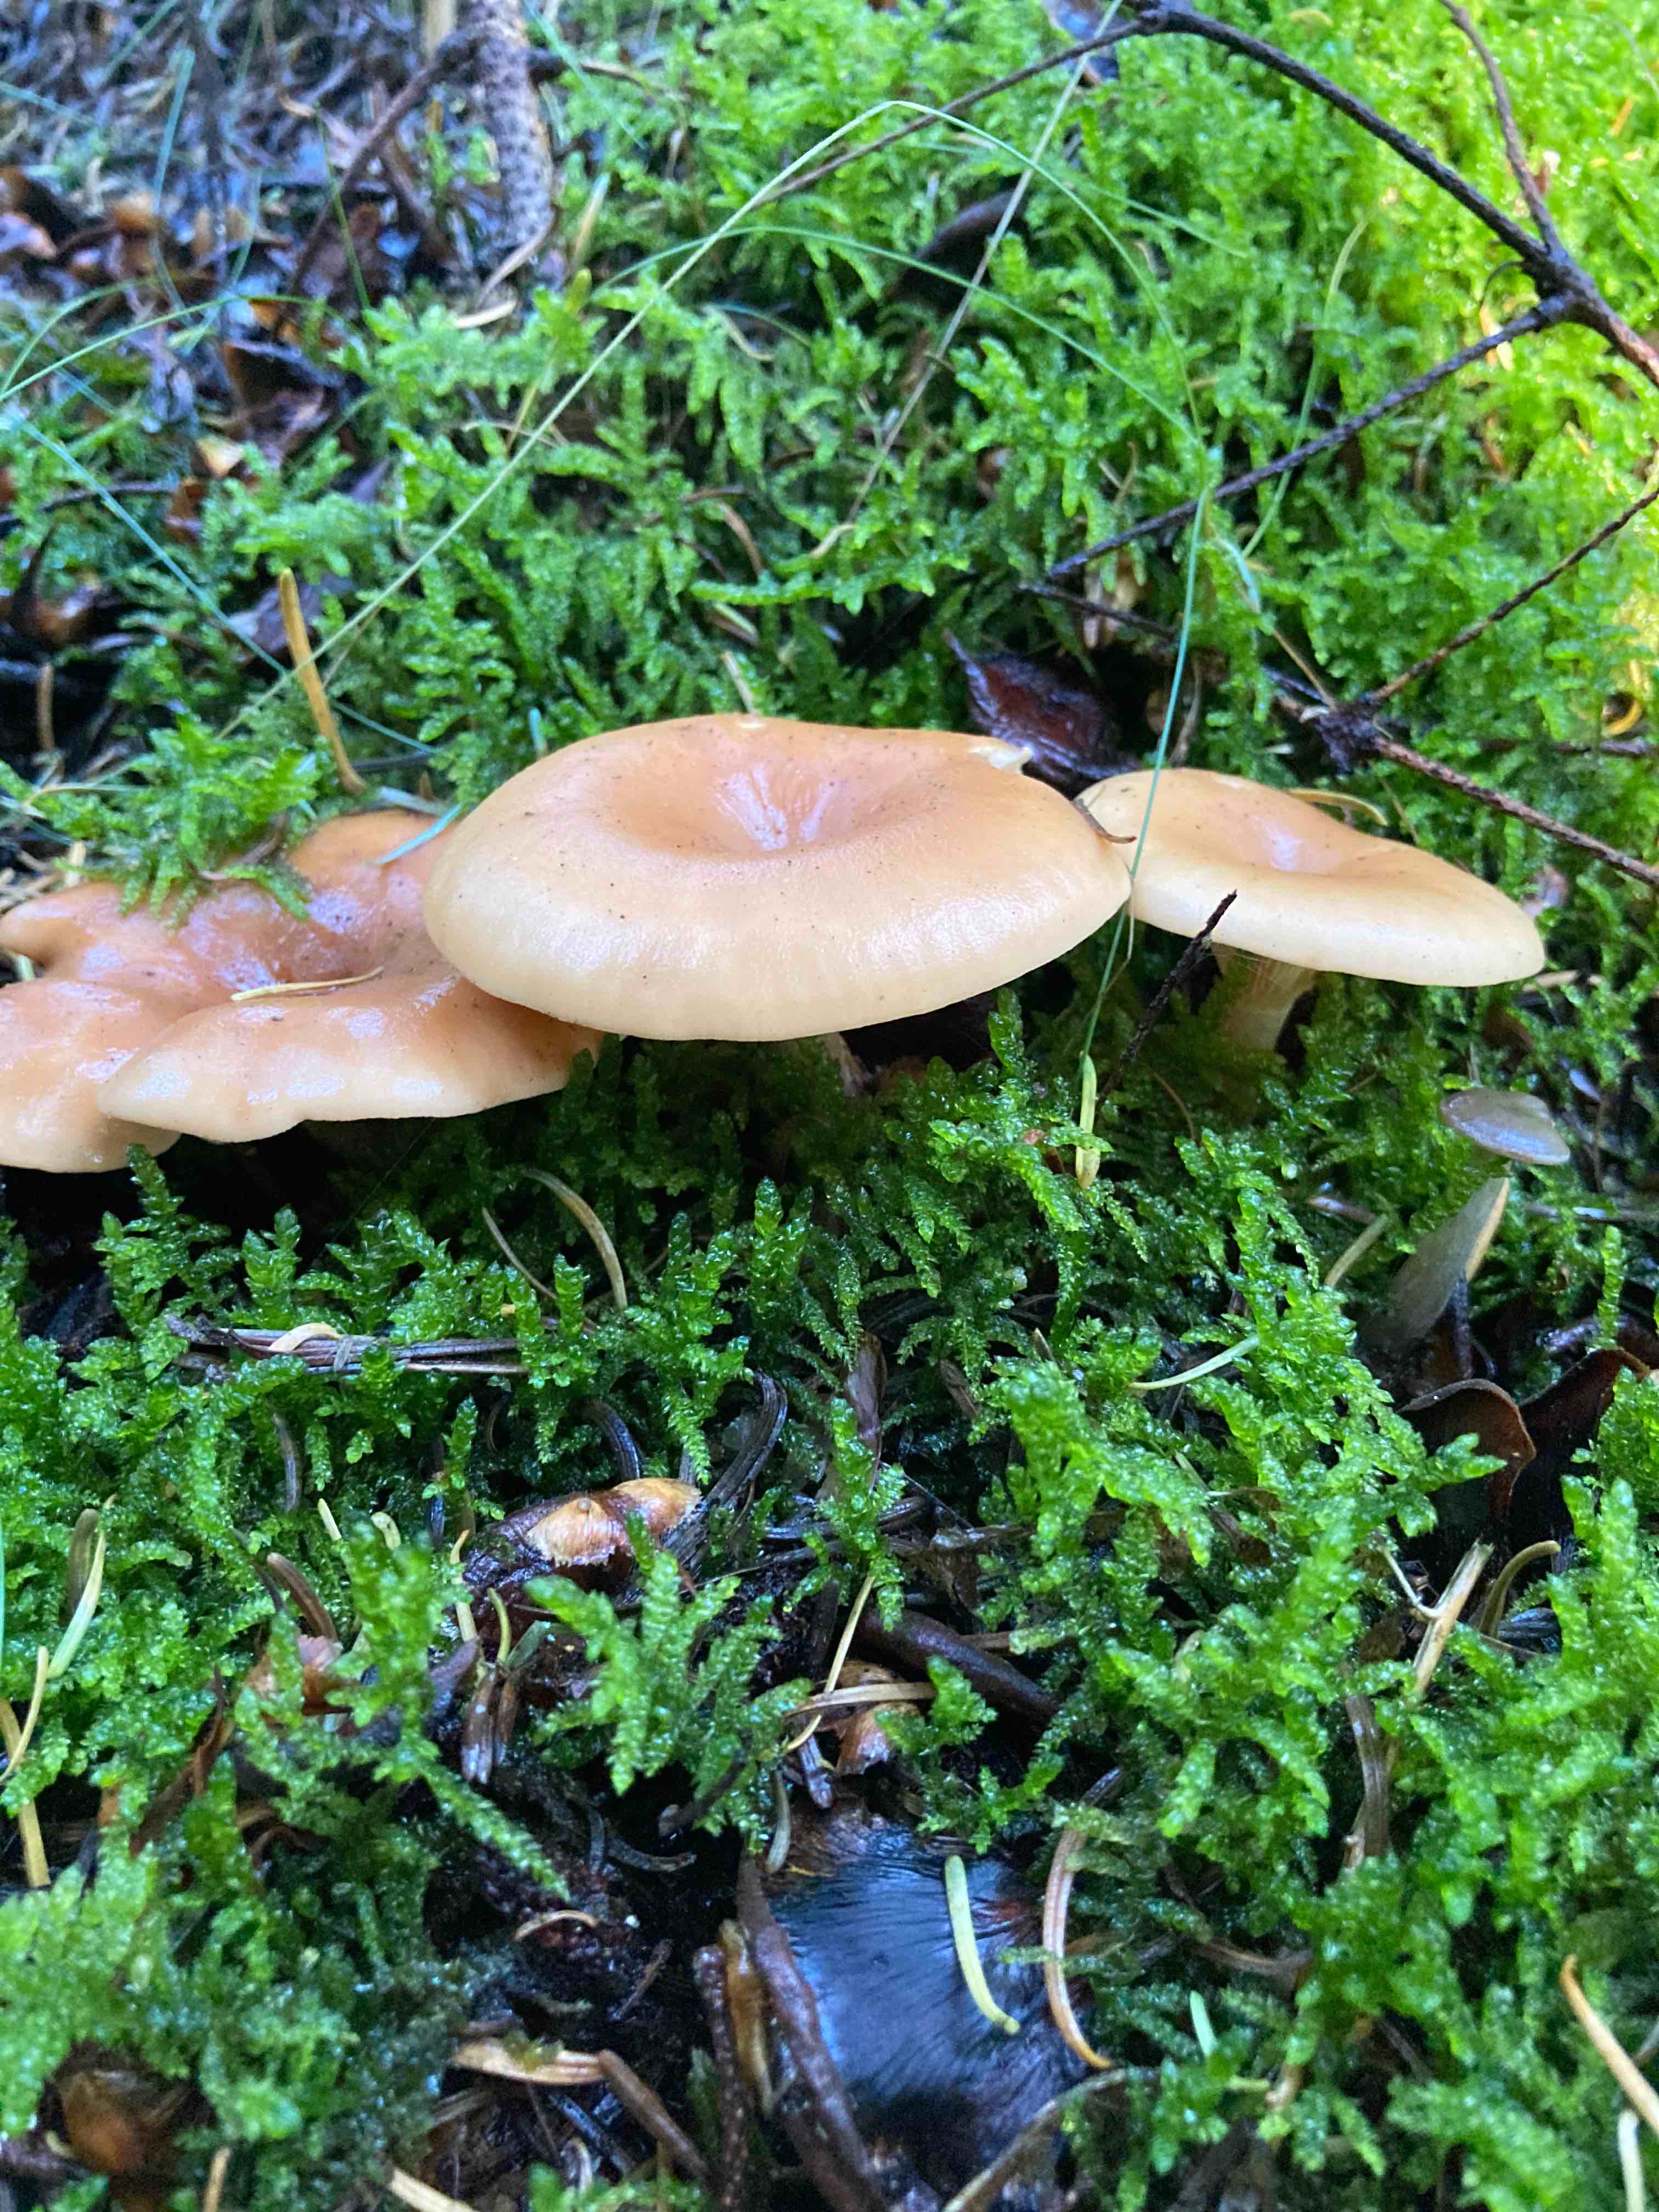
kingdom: Fungi
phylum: Basidiomycota
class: Agaricomycetes
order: Agaricales
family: Tricholomataceae
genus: Paralepista
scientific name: Paralepista flaccida
